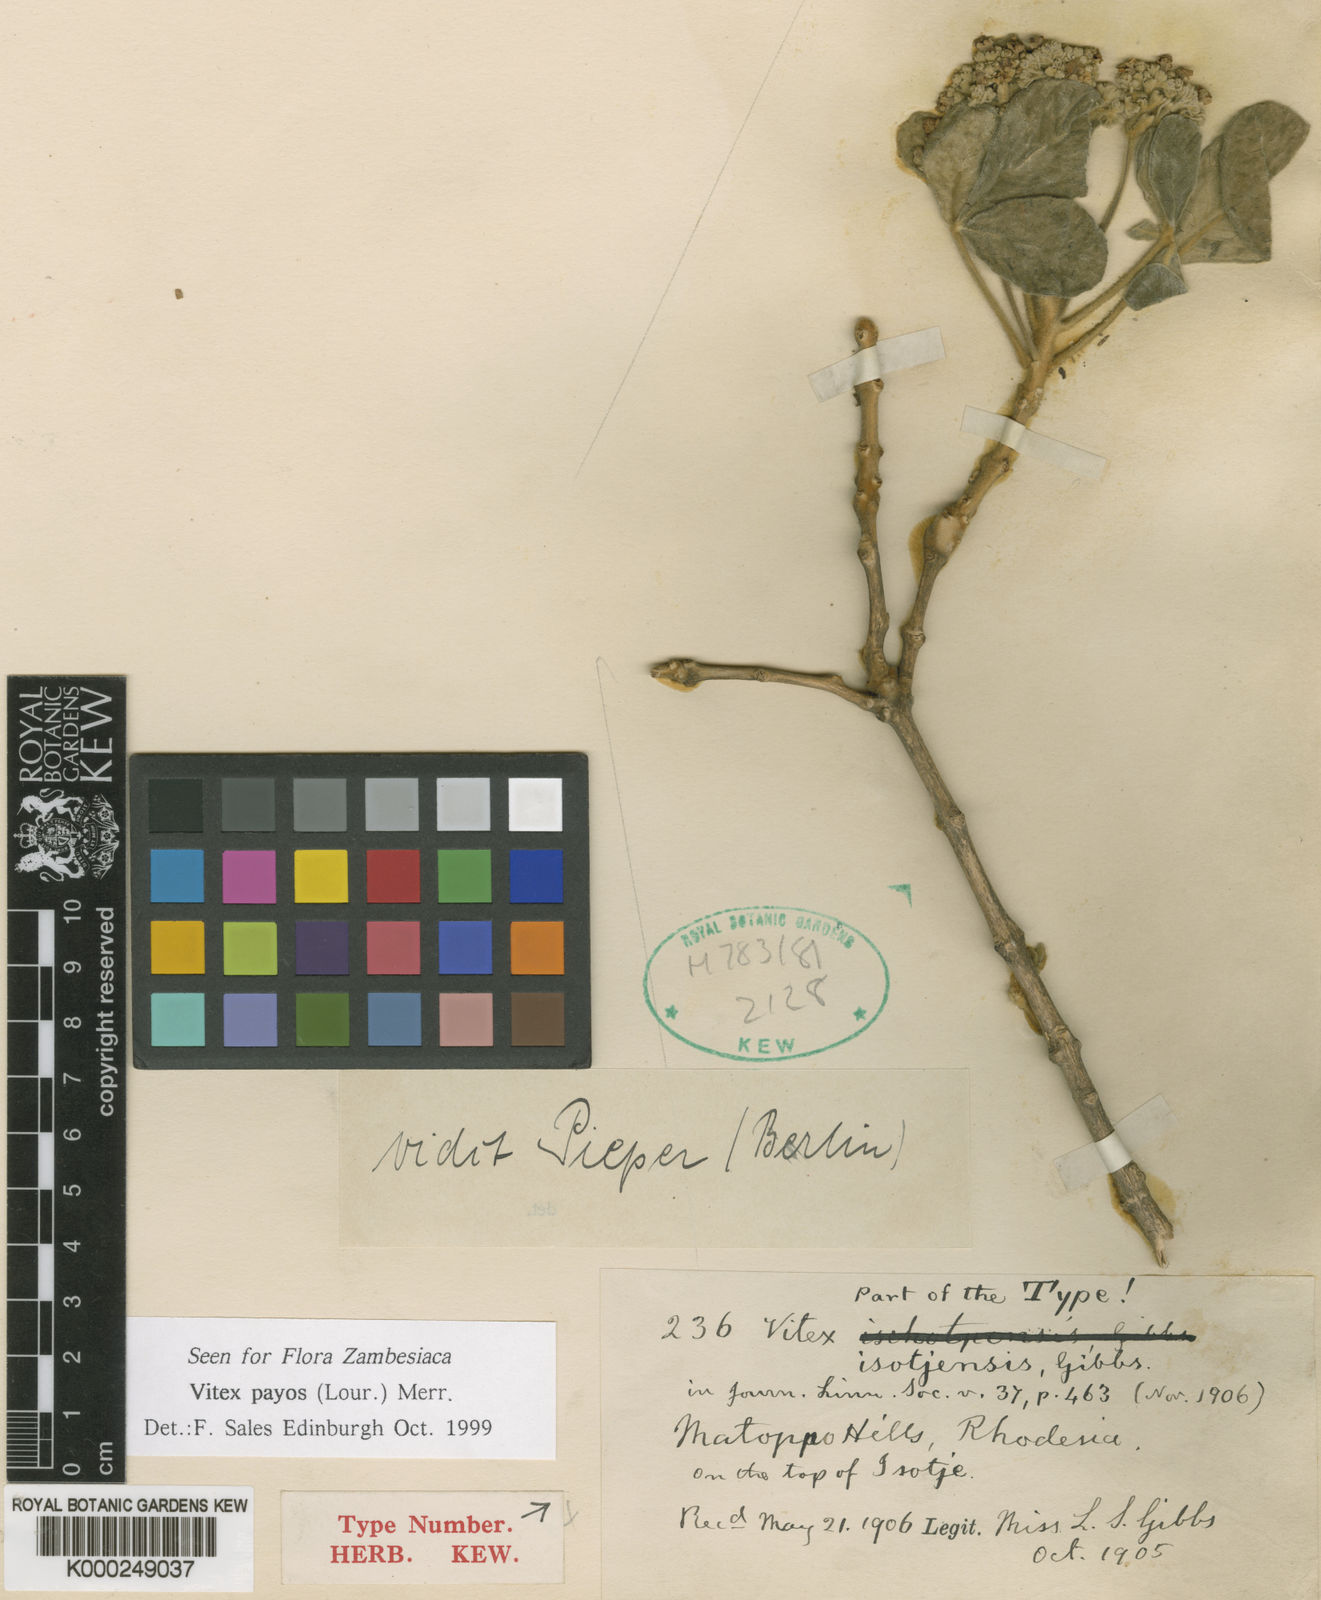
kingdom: Plantae
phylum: Tracheophyta
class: Magnoliopsida
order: Lamiales
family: Lamiaceae
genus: Vitex
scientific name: Vitex payos
